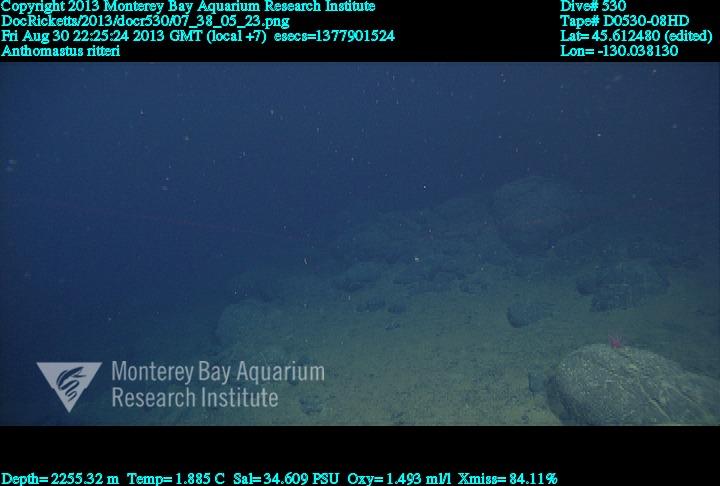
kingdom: Animalia
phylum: Cnidaria
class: Anthozoa
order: Scleralcyonacea
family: Coralliidae
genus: Heteropolypus
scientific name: Heteropolypus ritteri
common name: Ritter's soft coral
